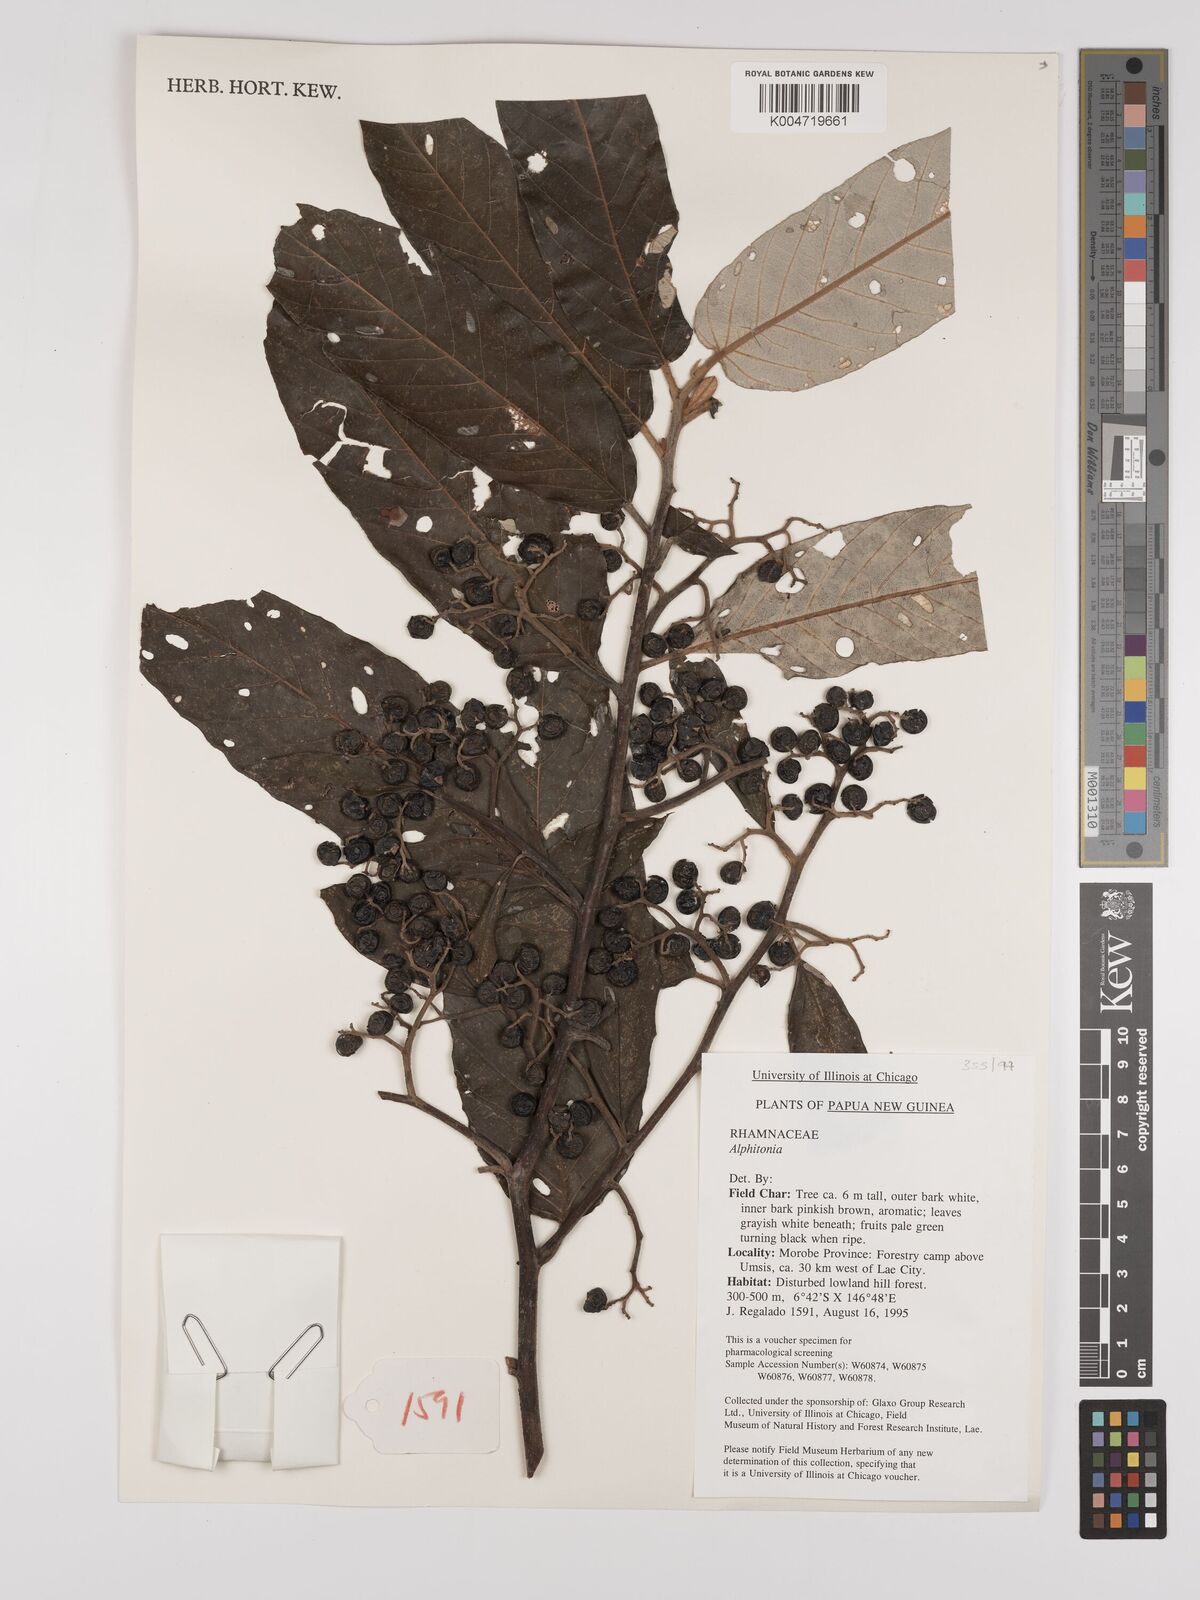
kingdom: Plantae
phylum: Tracheophyta
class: Magnoliopsida
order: Rosales
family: Rhamnaceae
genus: Alphitonia
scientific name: Alphitonia
